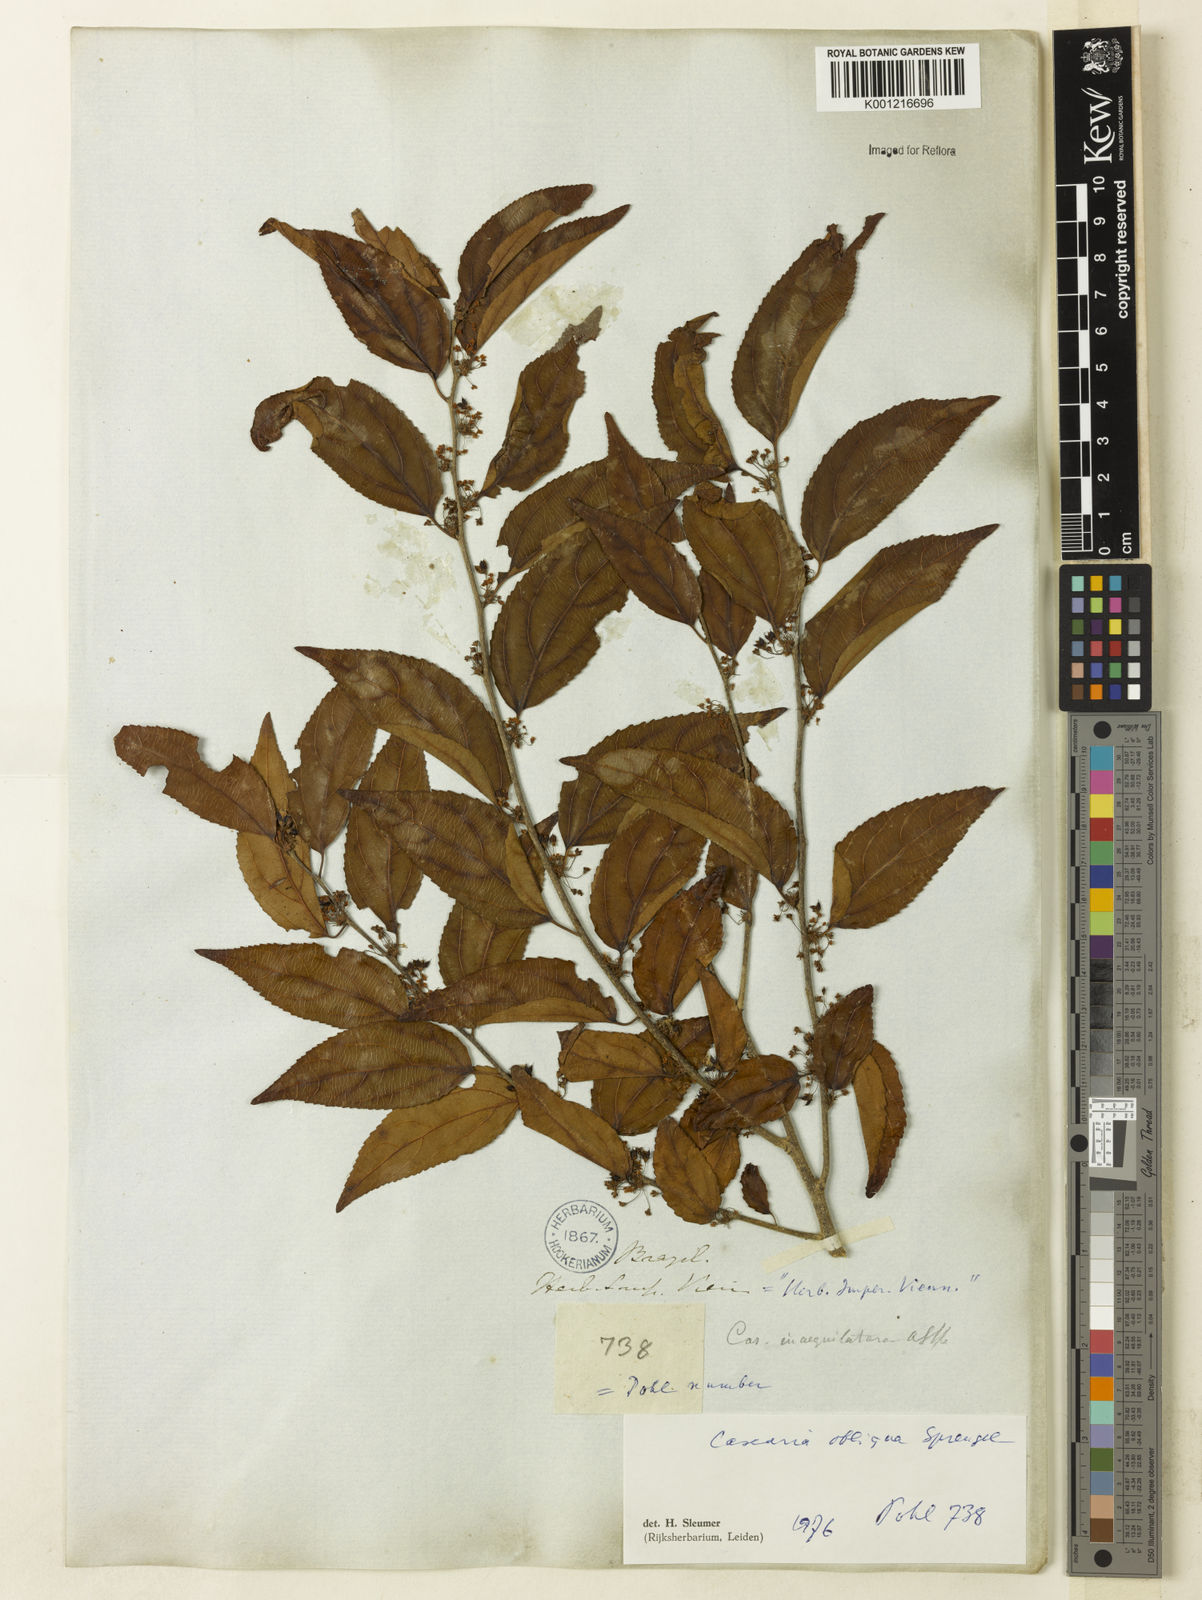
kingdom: Plantae
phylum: Tracheophyta
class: Magnoliopsida
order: Malpighiales
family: Salicaceae
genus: Casearia
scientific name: Casearia obliqua
